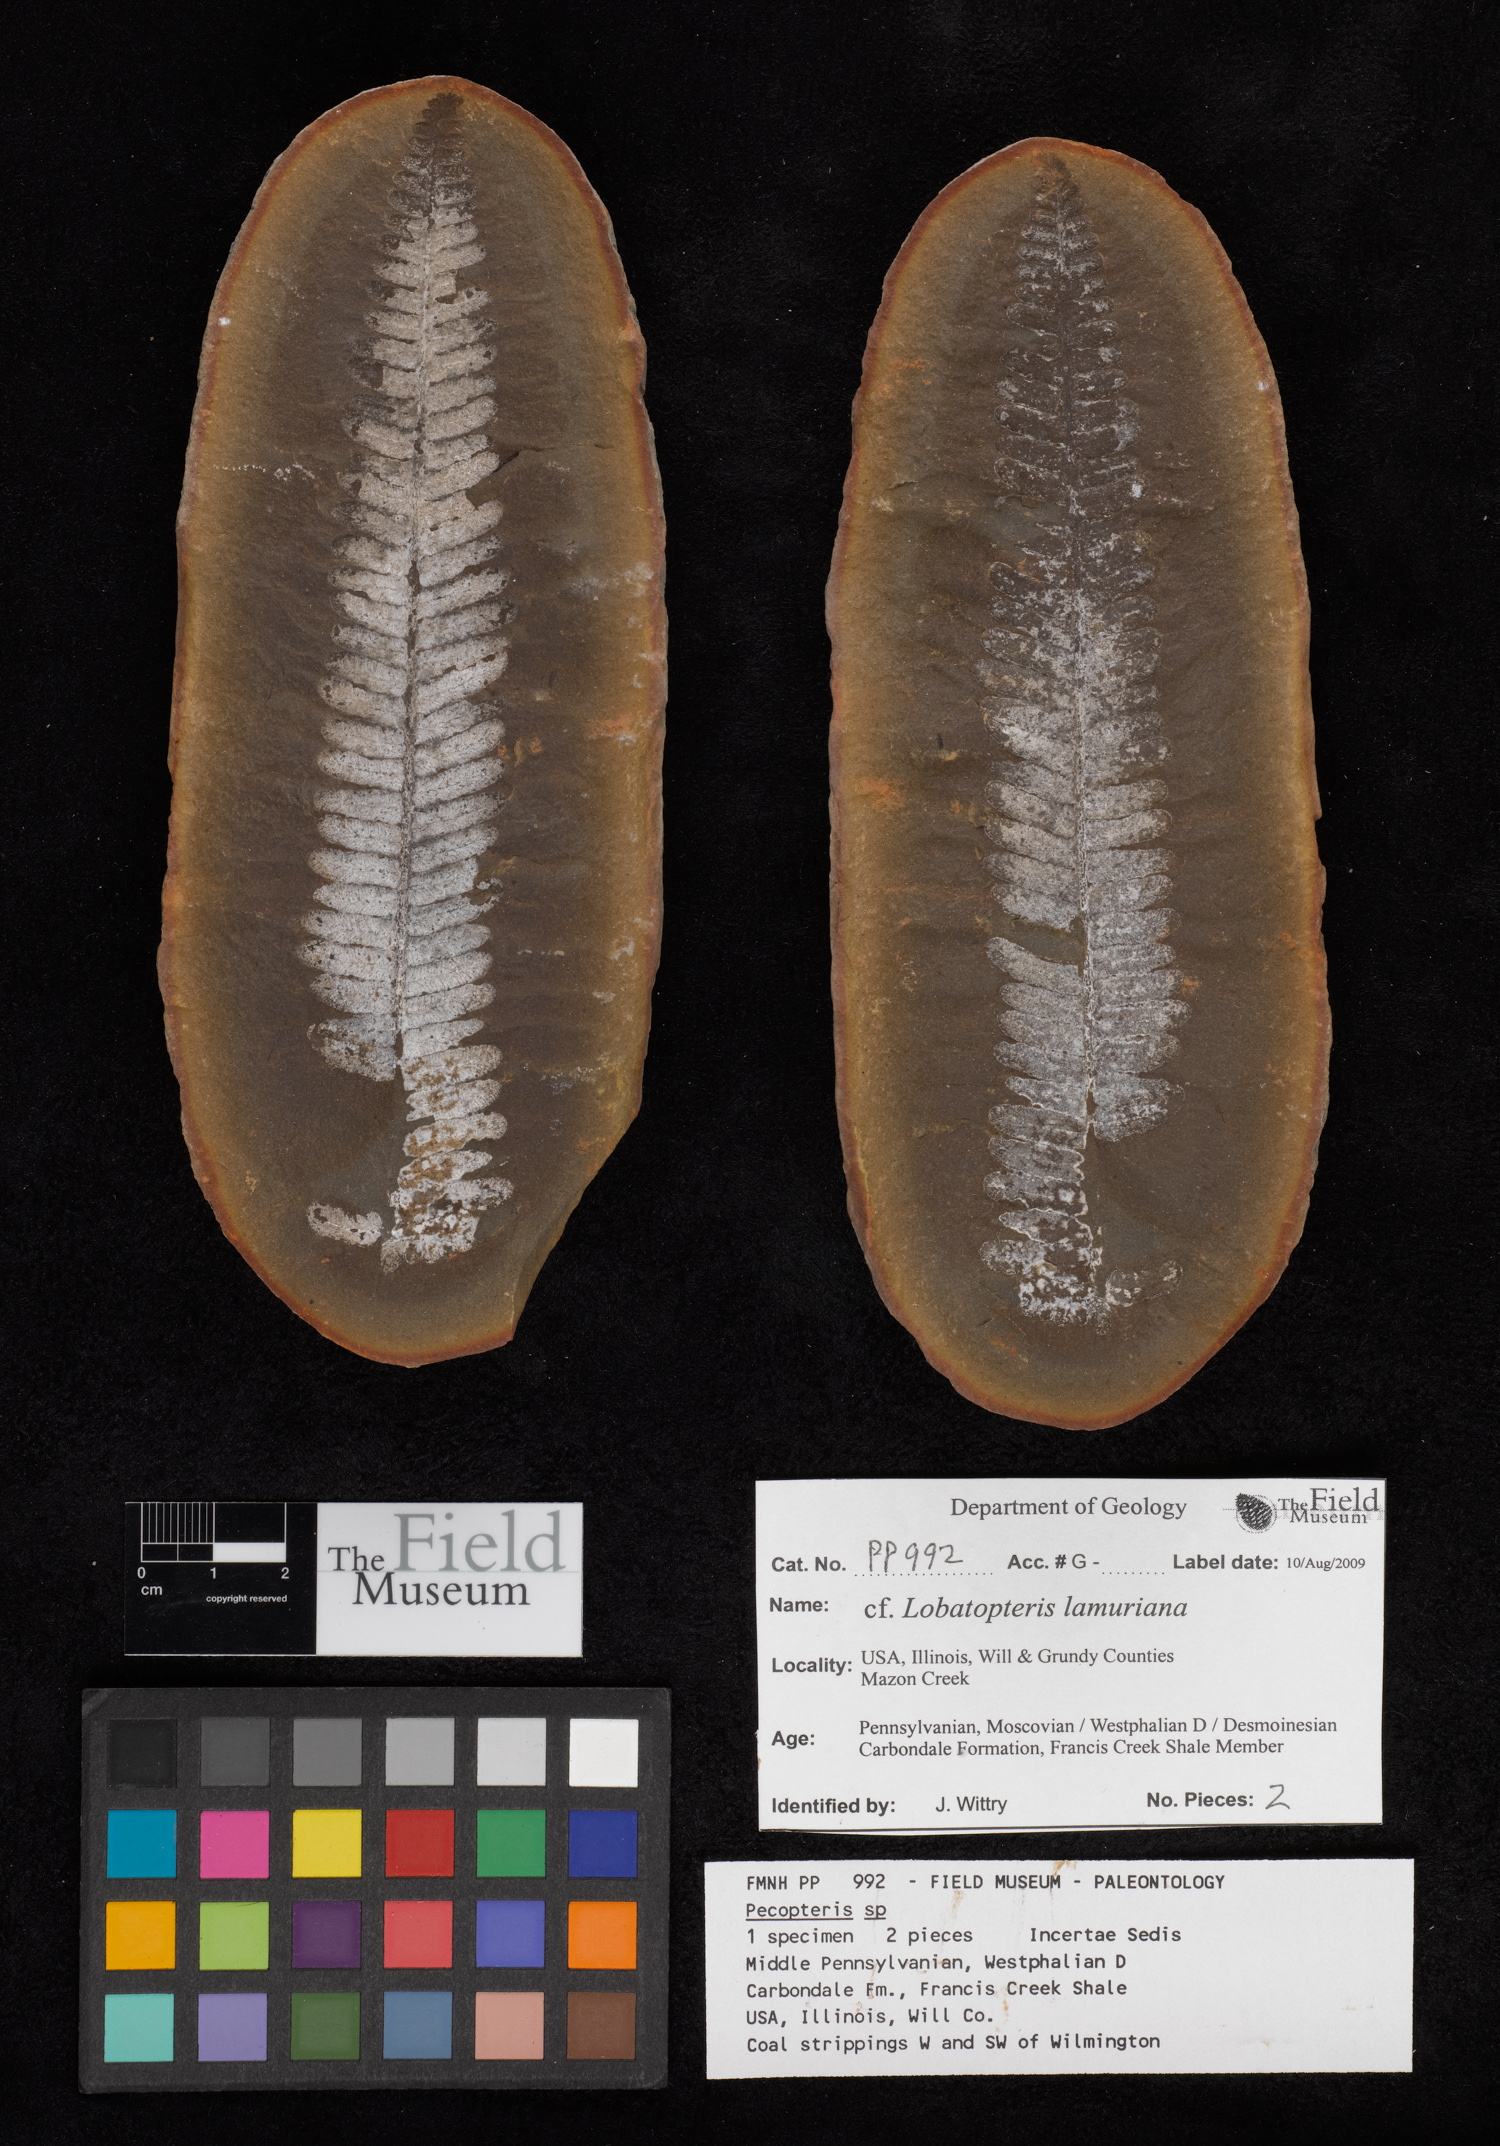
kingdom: Plantae
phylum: Tracheophyta
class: Polypodiopsida
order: Marattiales
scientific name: Marattiales
